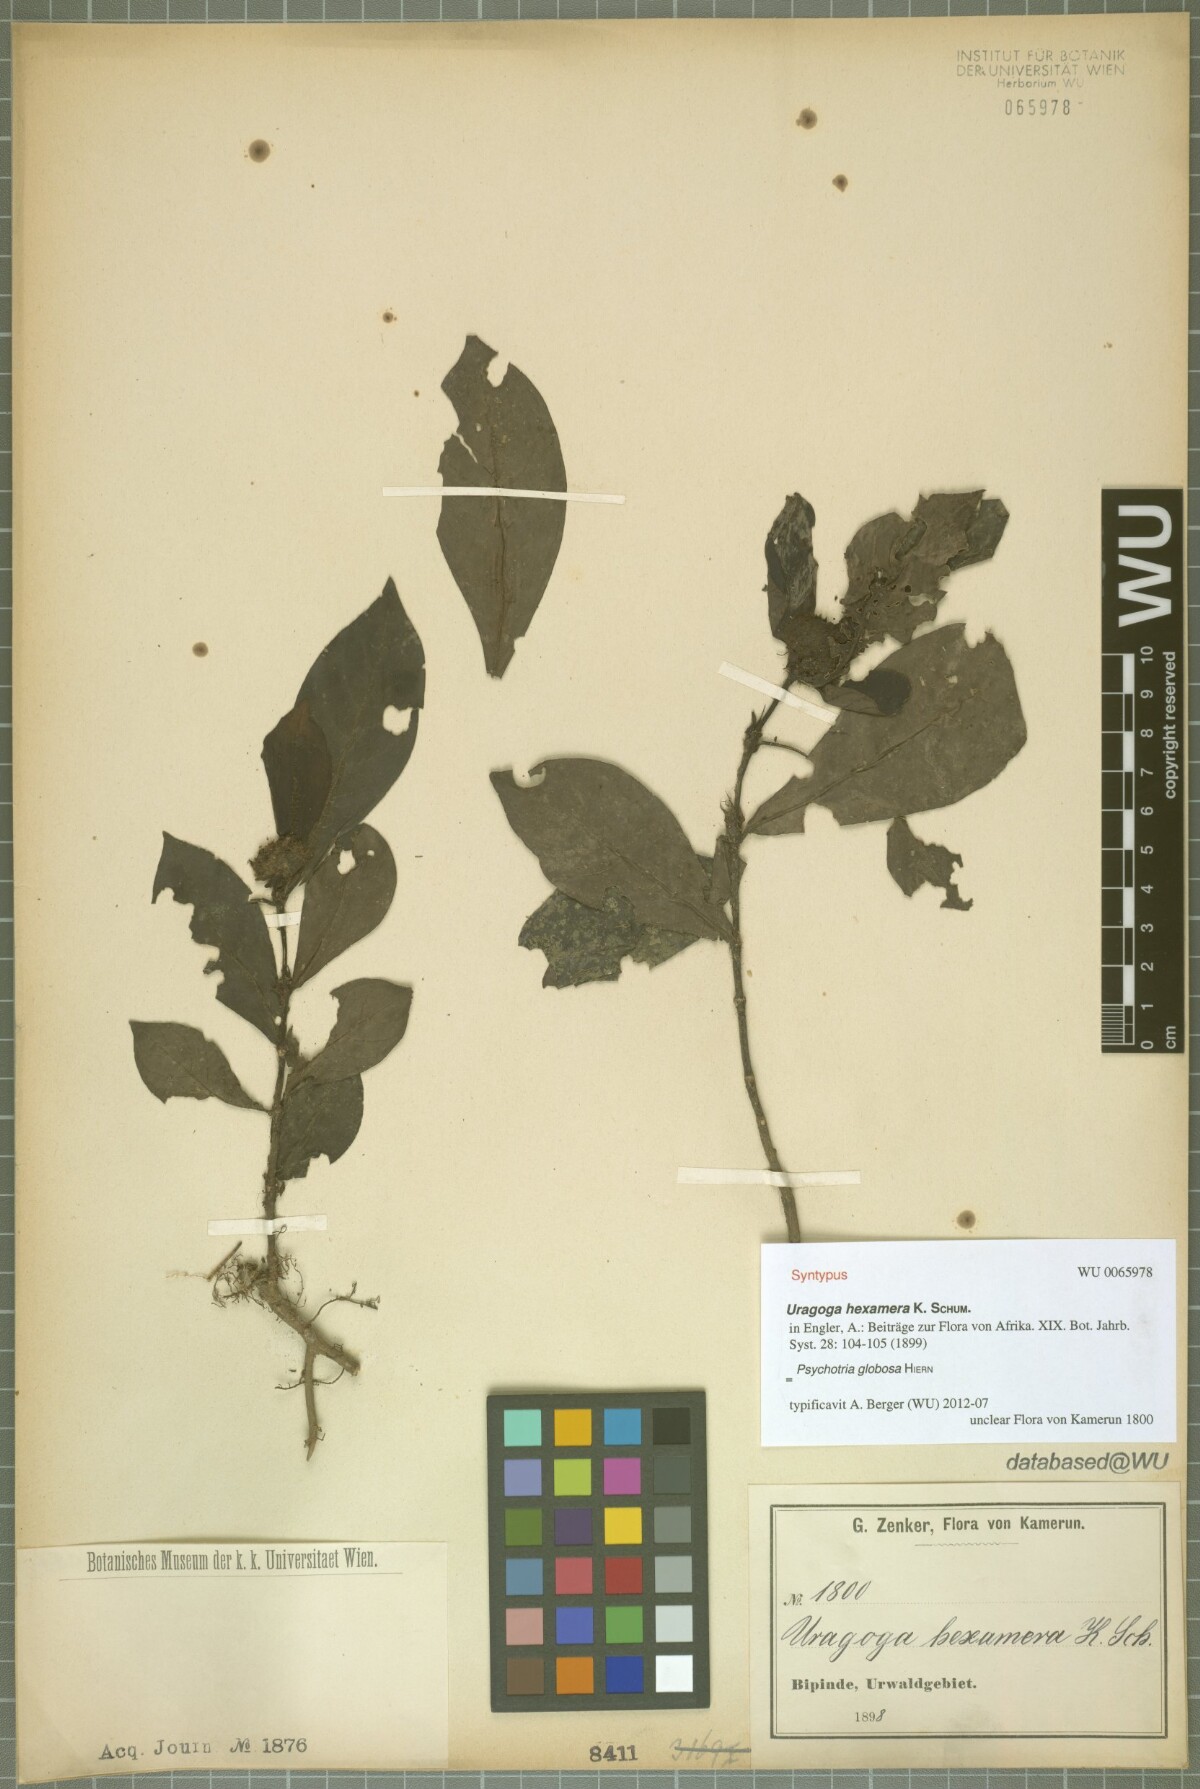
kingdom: Plantae
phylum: Tracheophyta
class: Magnoliopsida
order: Gentianales
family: Rubiaceae
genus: Psychotria
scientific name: Psychotria hexamera
